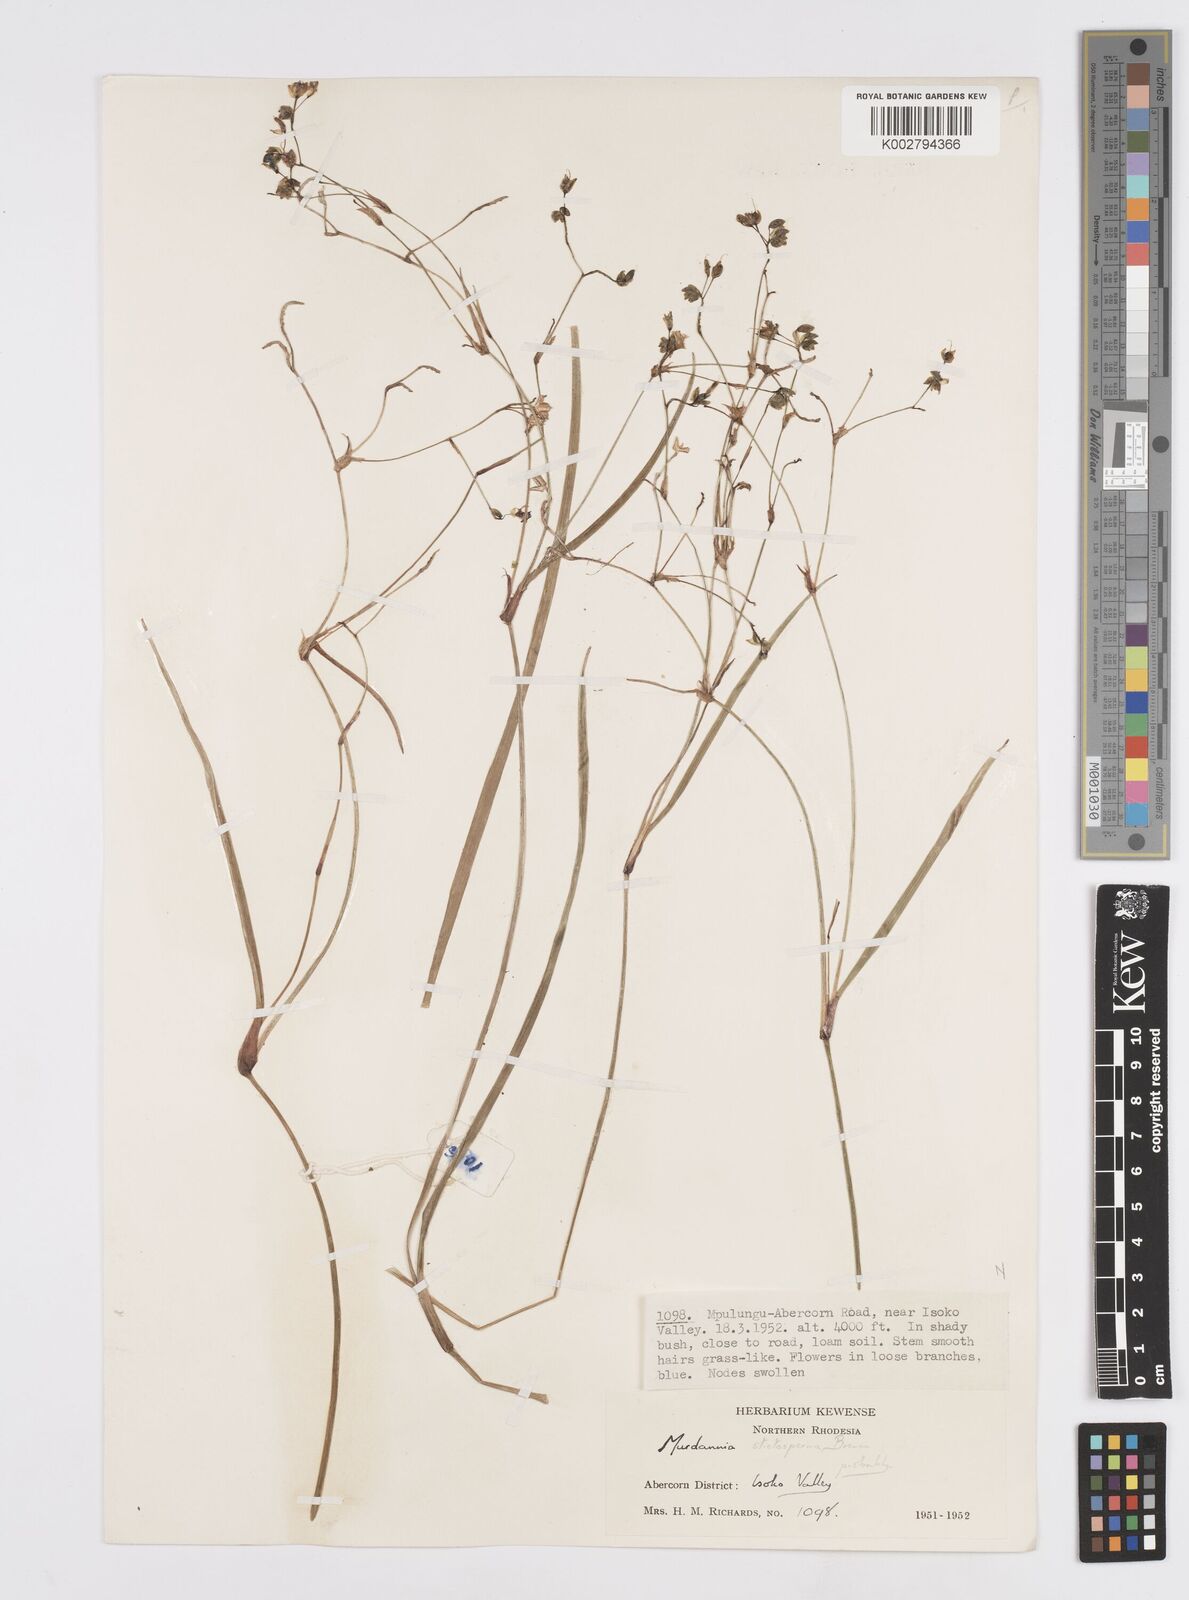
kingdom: Plantae
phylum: Tracheophyta
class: Liliopsida
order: Commelinales
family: Commelinaceae
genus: Murdannia
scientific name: Murdannia simplex
